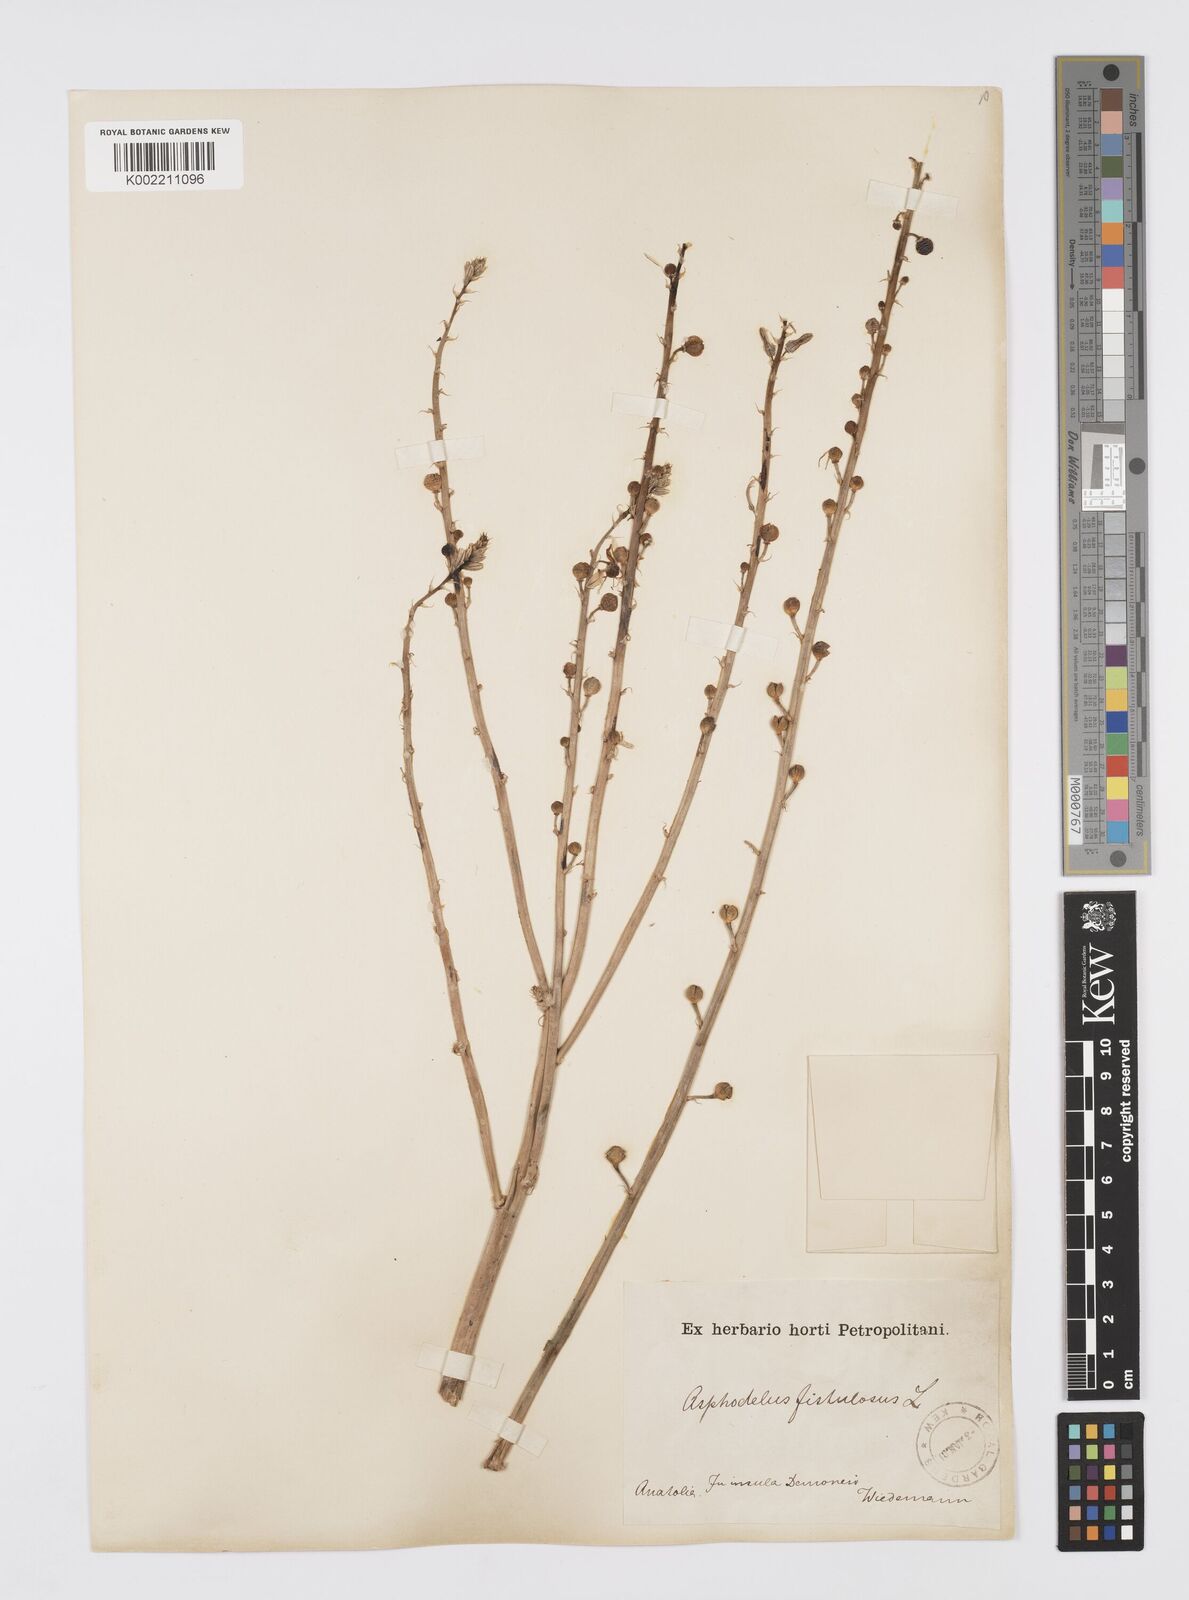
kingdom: Plantae
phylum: Tracheophyta
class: Liliopsida
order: Asparagales
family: Asphodelaceae
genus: Asphodelus
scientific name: Asphodelus fistulosus
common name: Onionweed
